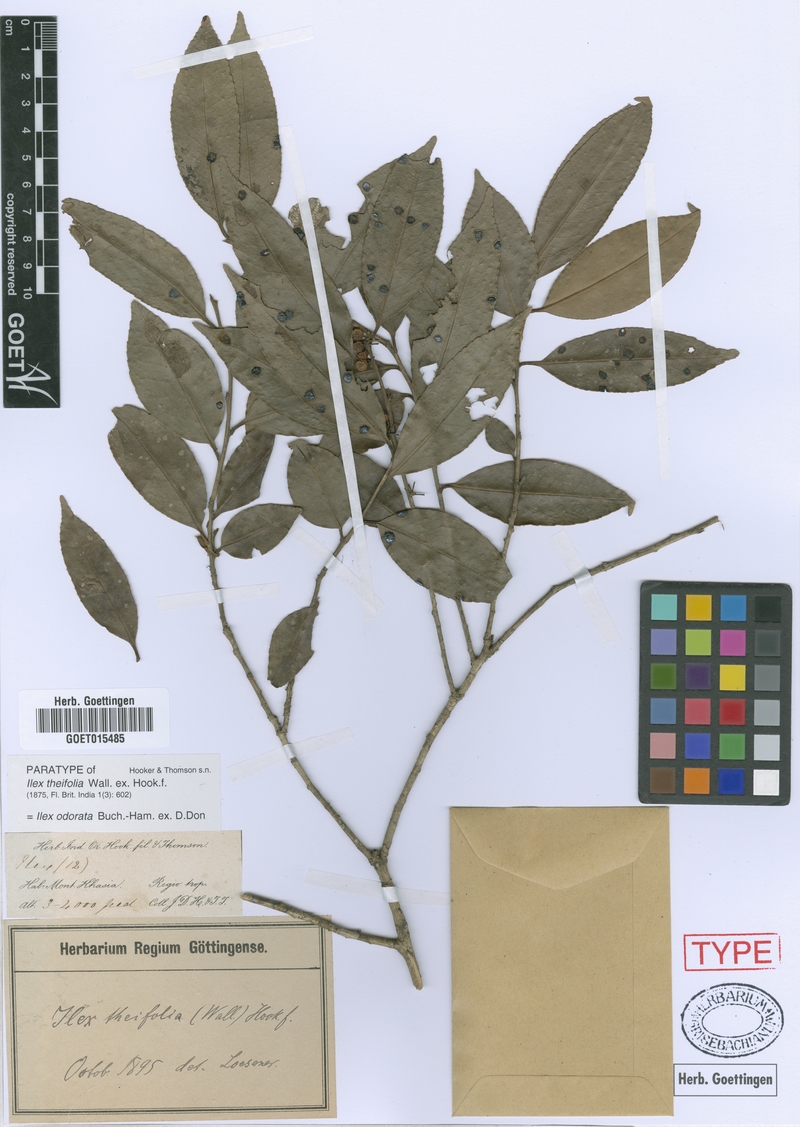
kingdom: Plantae
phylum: Tracheophyta
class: Magnoliopsida
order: Aquifoliales
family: Aquifoliaceae
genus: Ilex
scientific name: Ilex odorata
